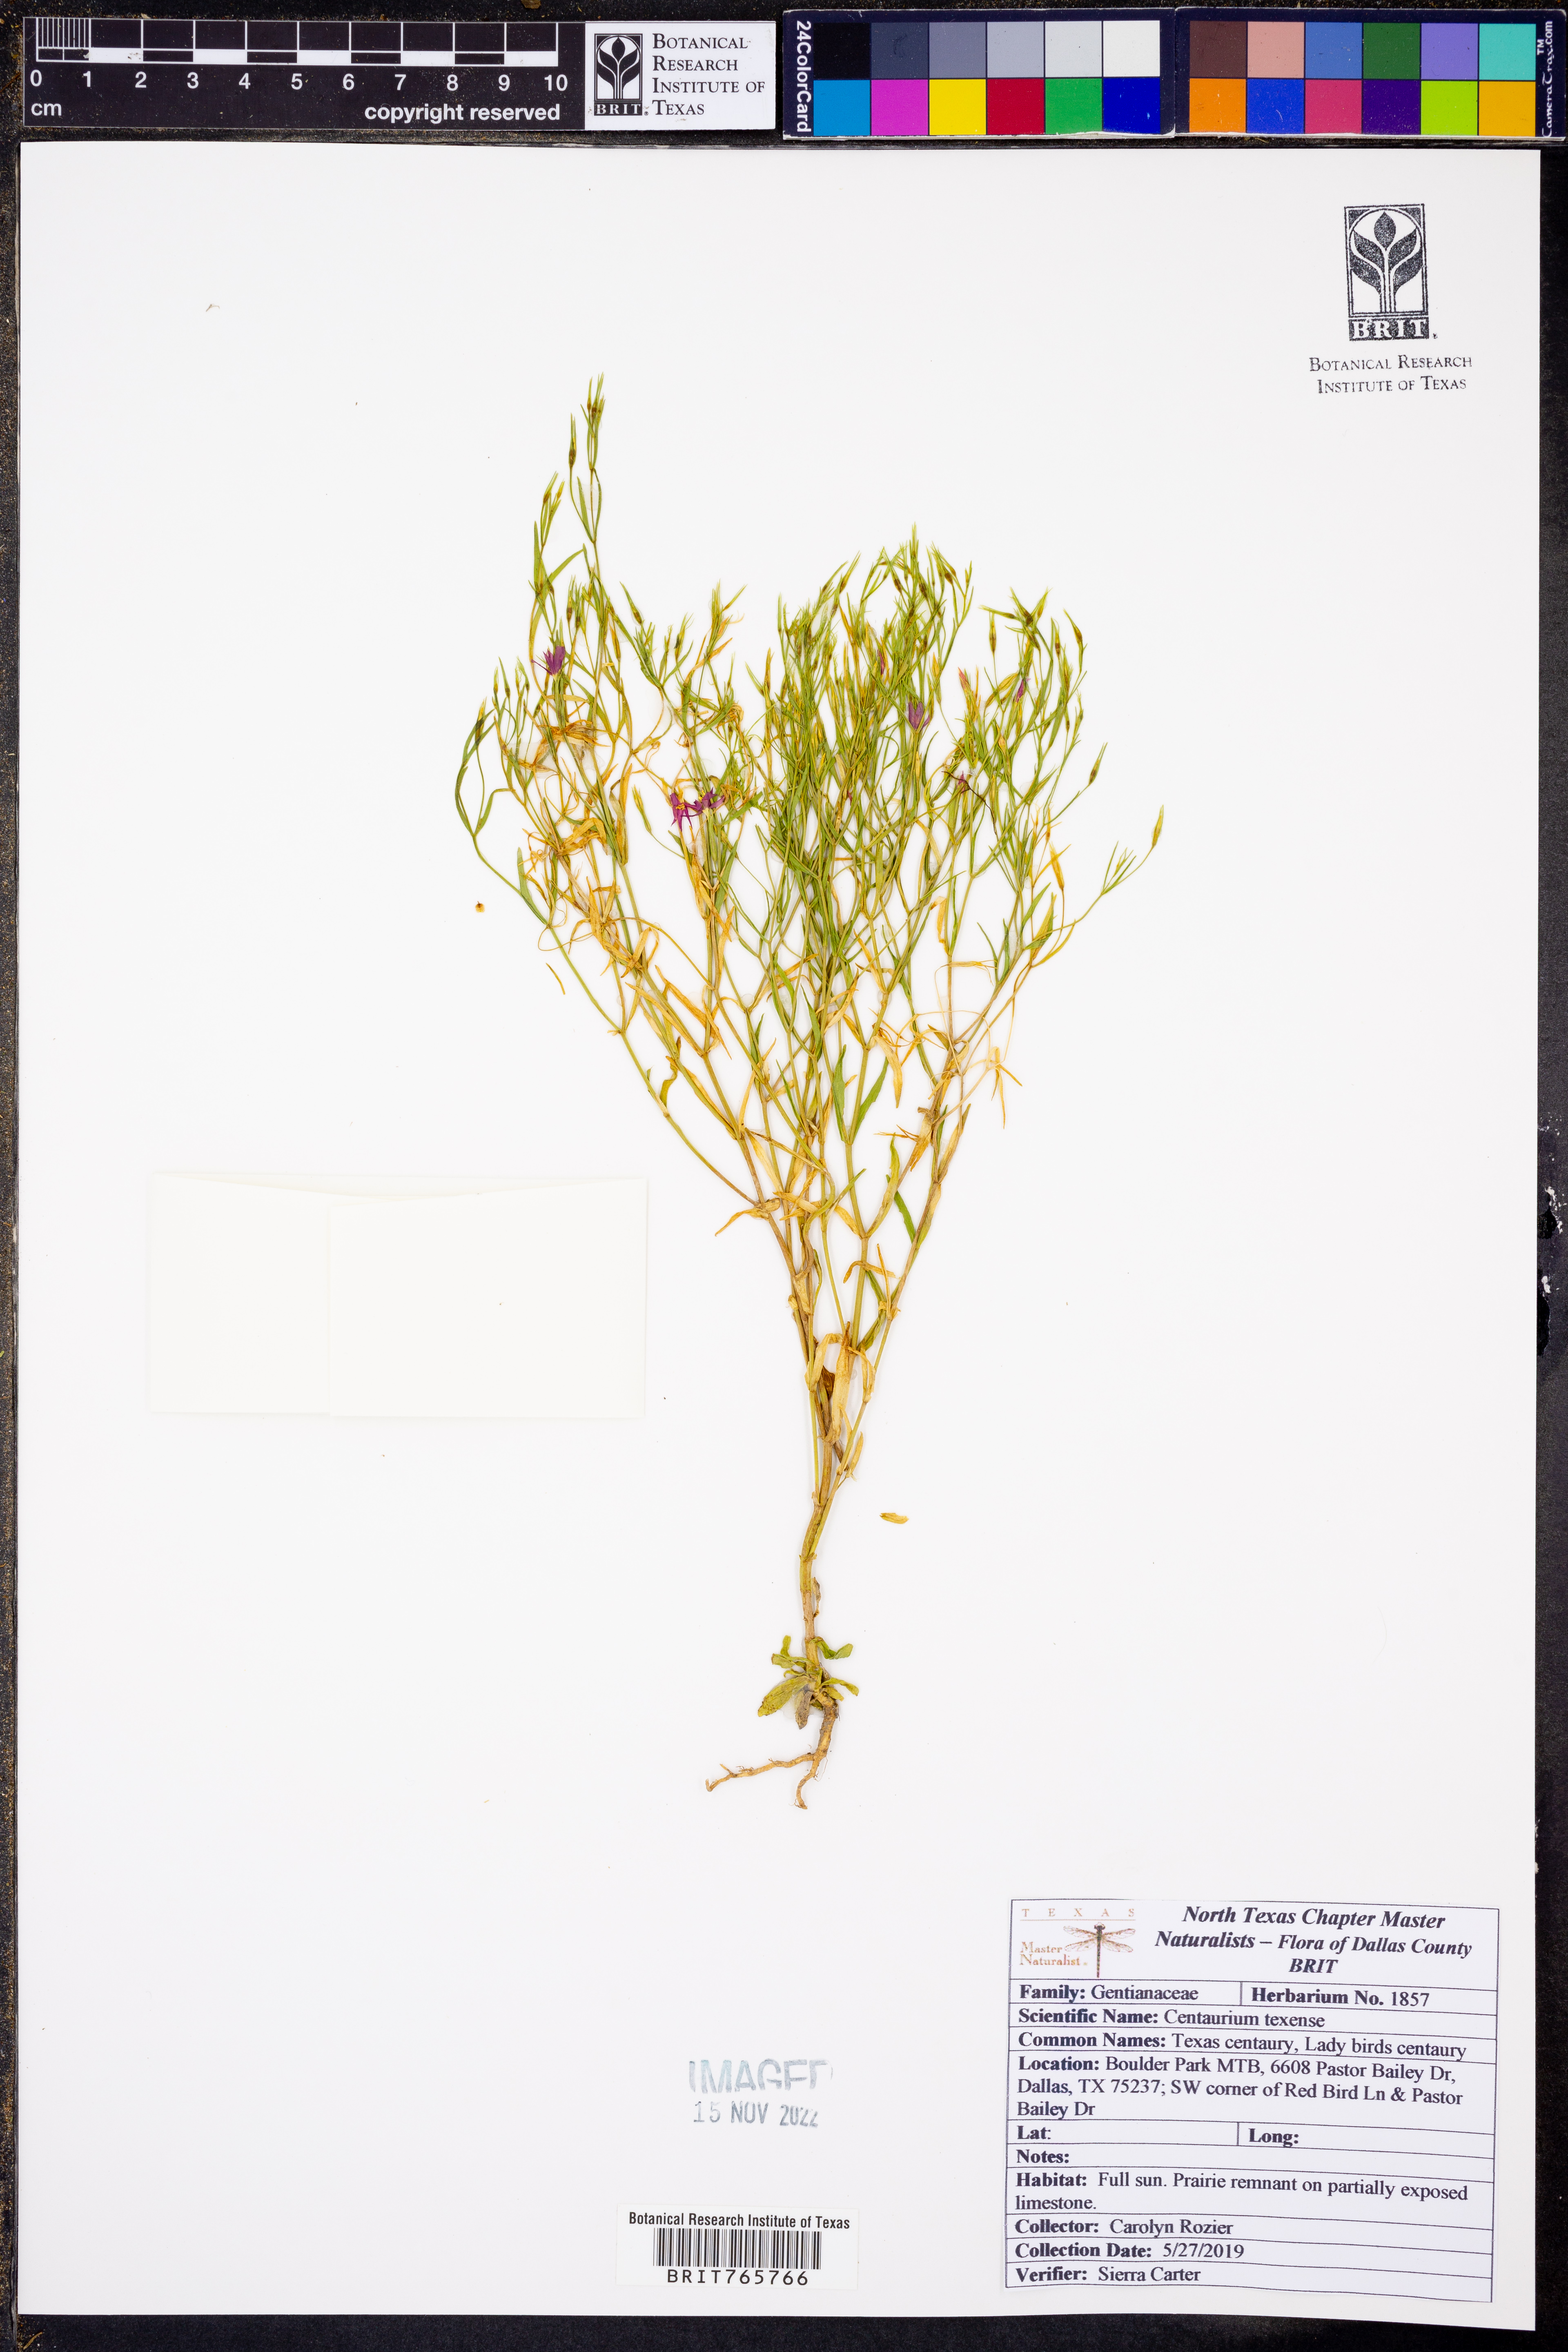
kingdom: Plantae
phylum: Tracheophyta
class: Magnoliopsida
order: Gentianales
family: Gentianaceae
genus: Zeltnera
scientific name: Zeltnera texensis
